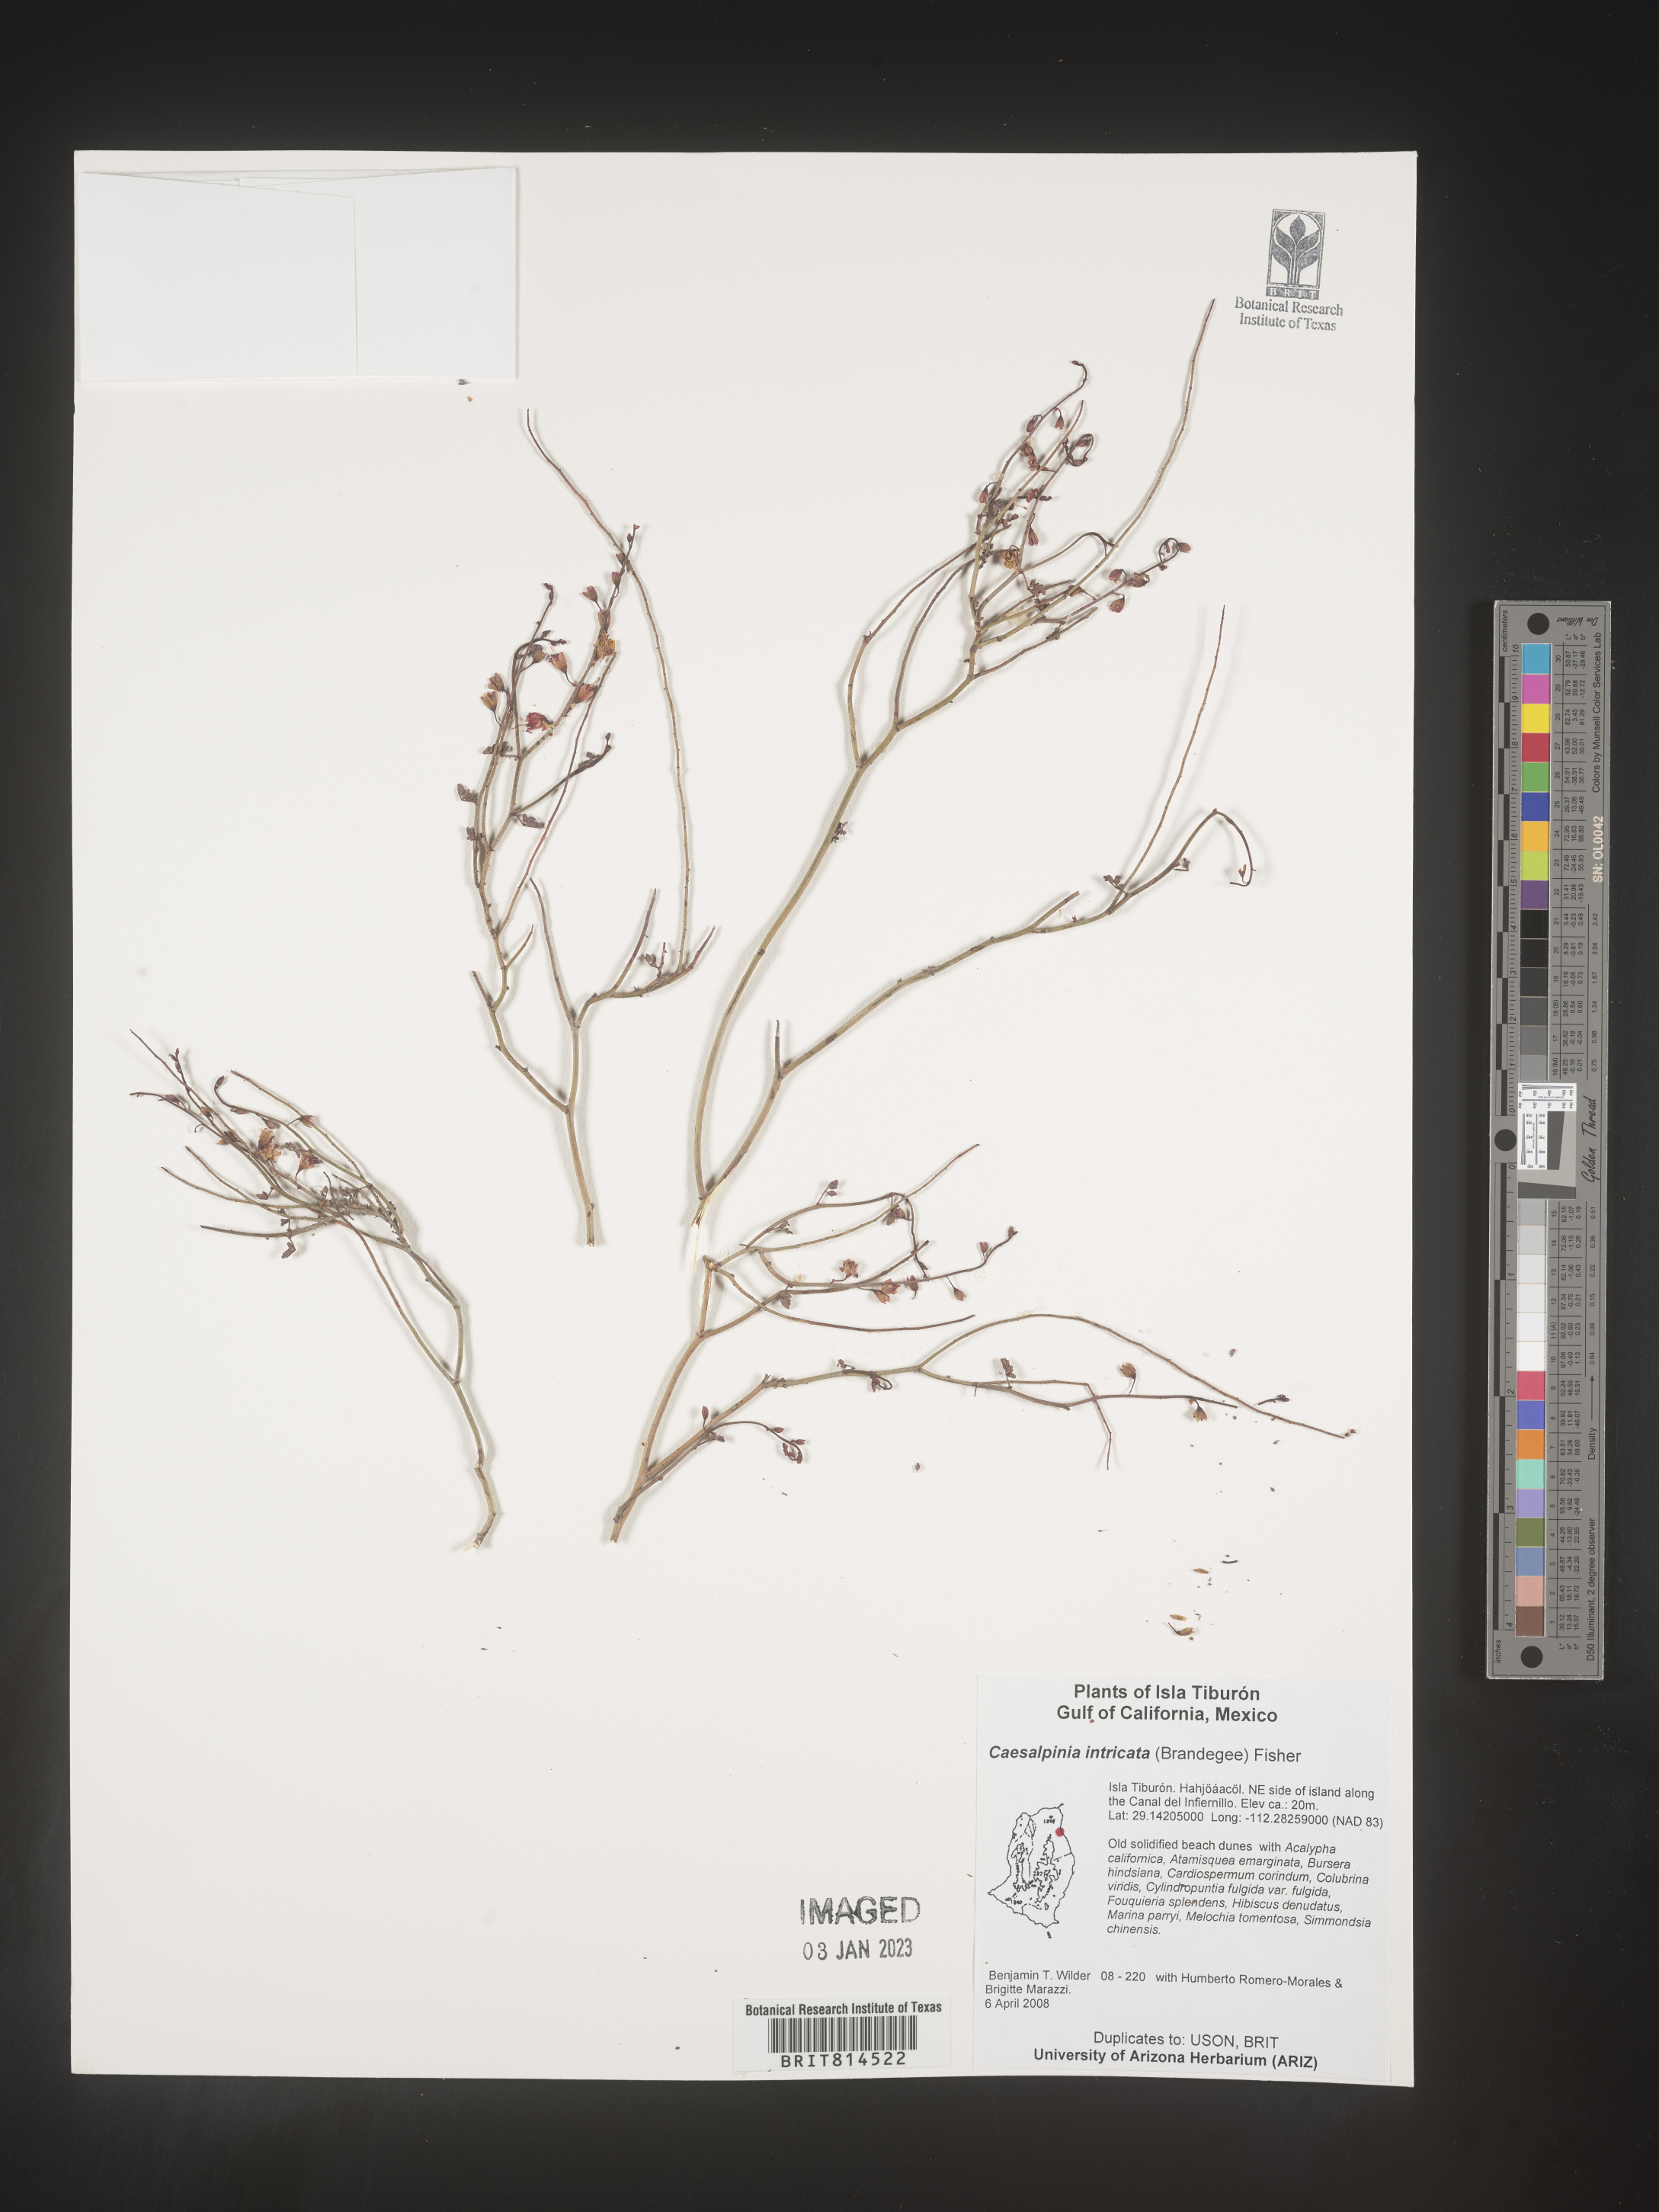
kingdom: Plantae
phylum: Tracheophyta
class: Magnoliopsida
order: Fabales
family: Fabaceae
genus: Caesalpinia
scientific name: Caesalpinia
